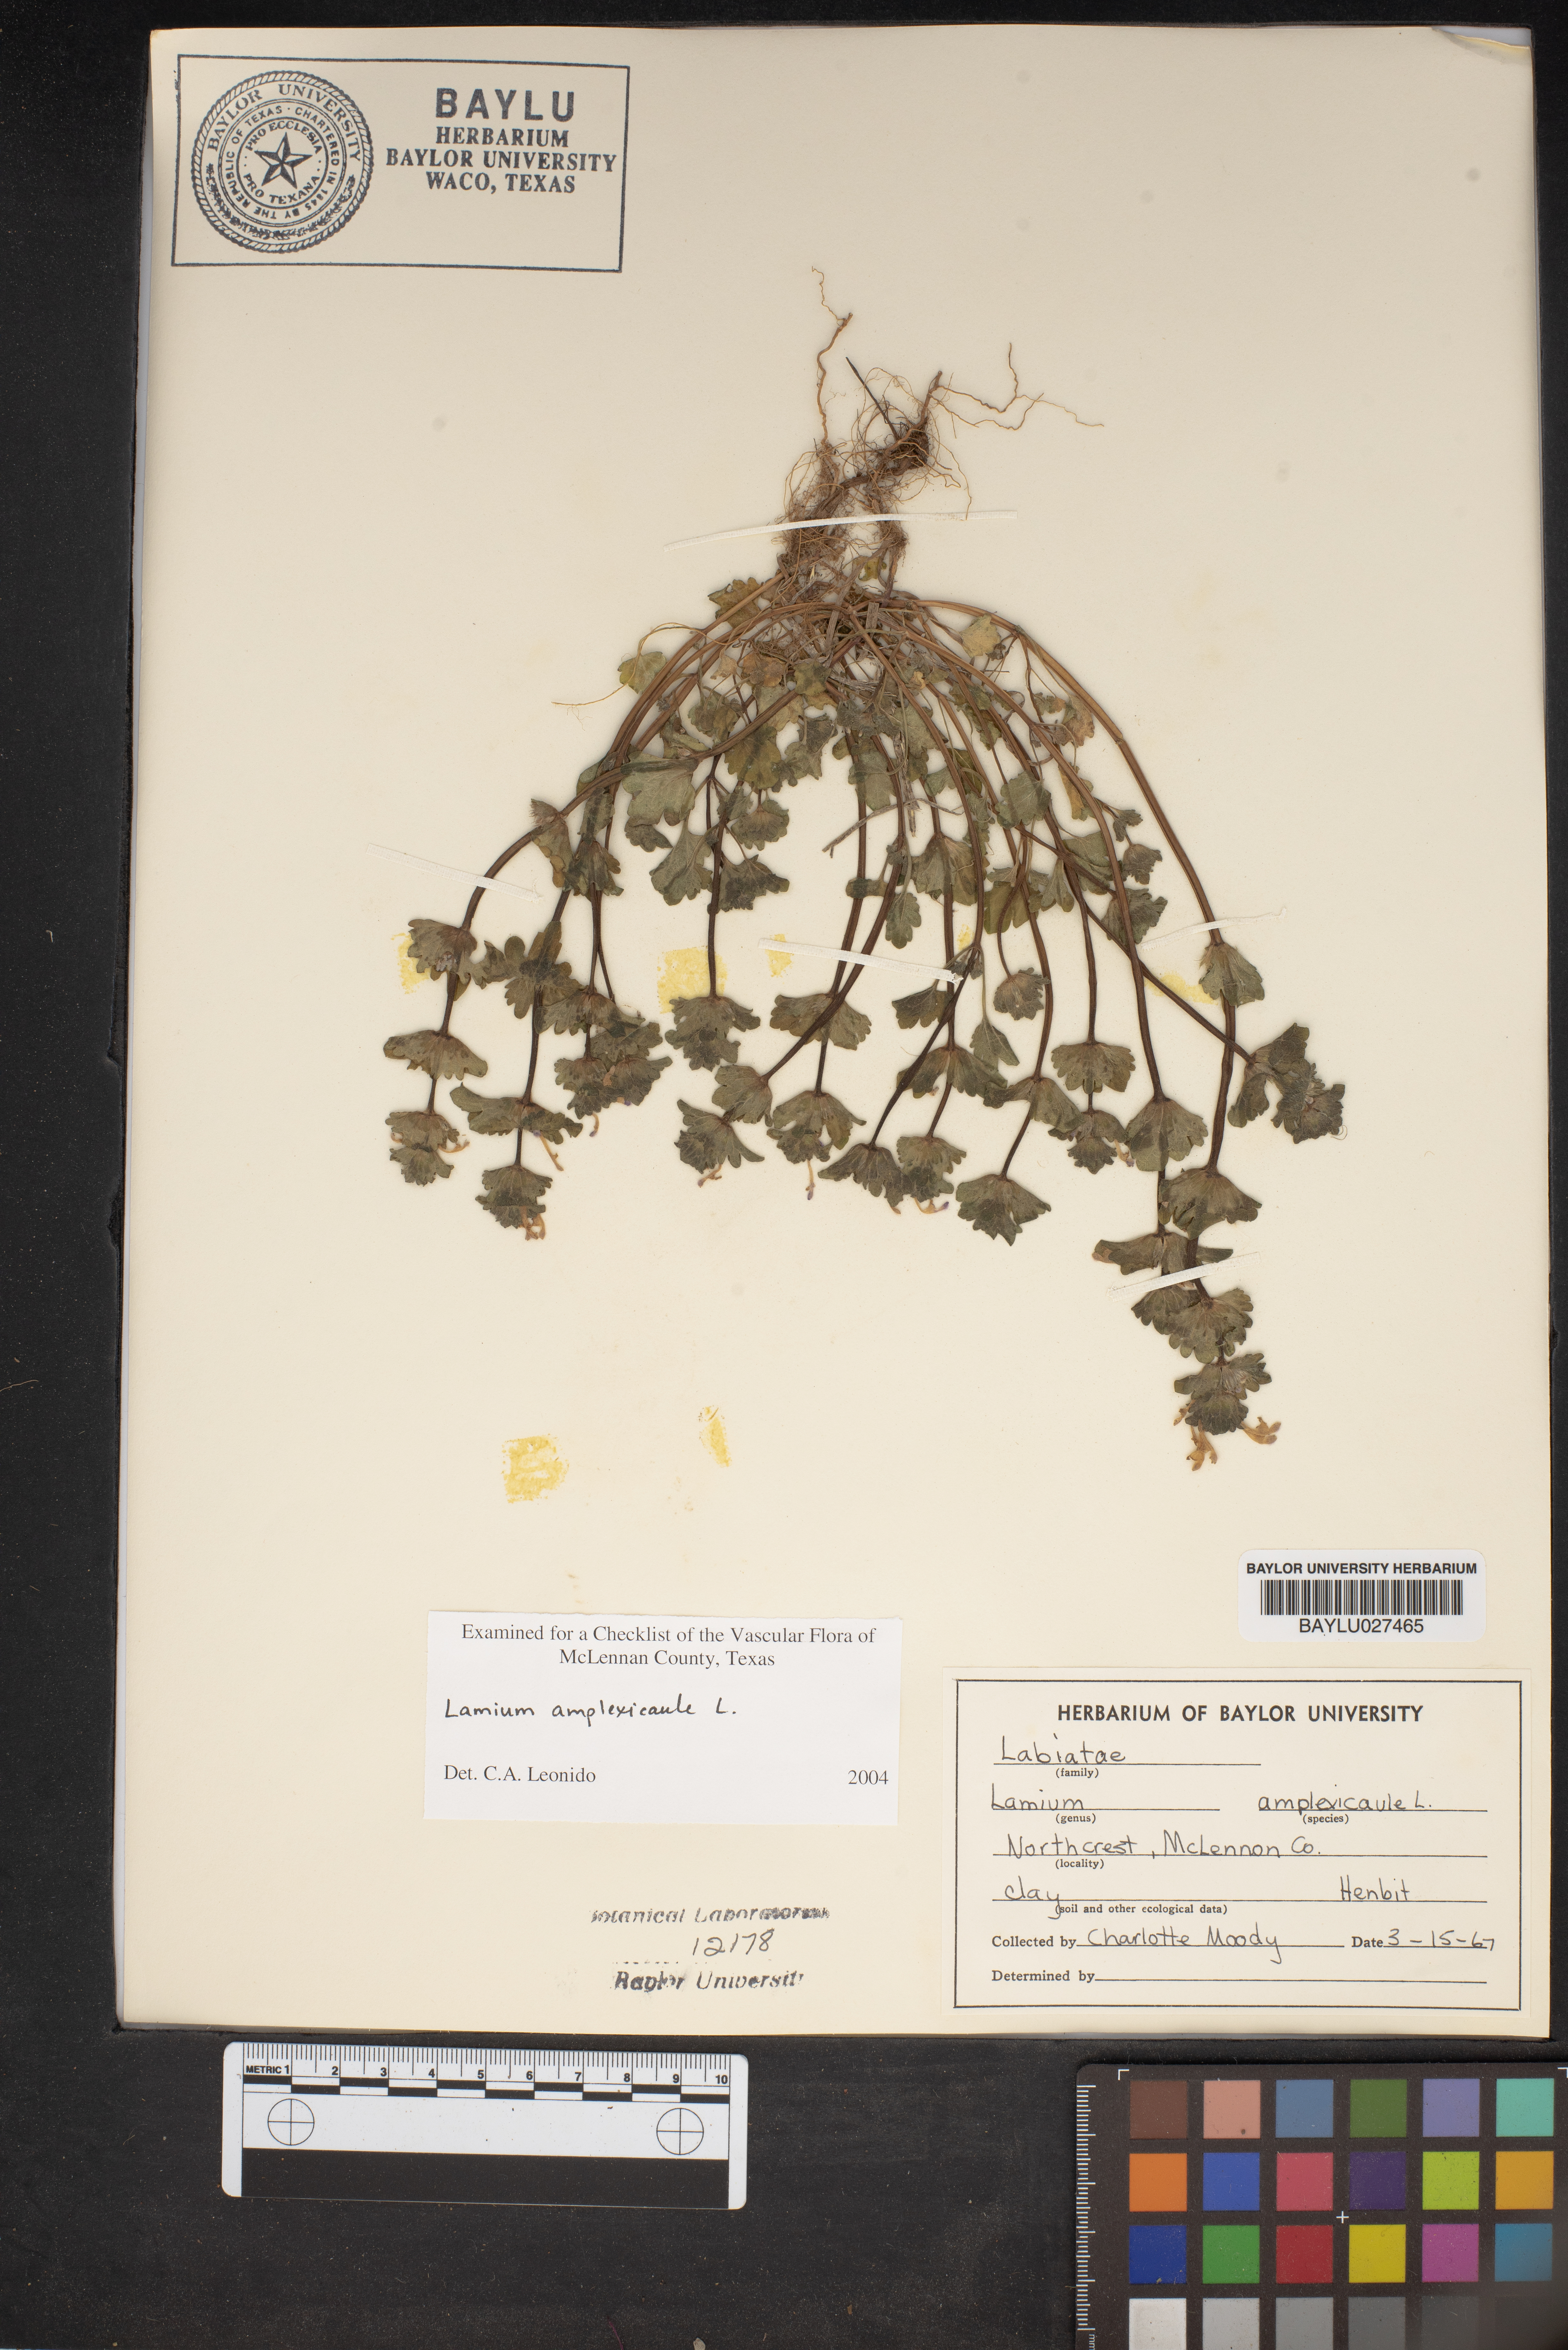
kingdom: Plantae
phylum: Tracheophyta
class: Magnoliopsida
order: Lamiales
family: Lamiaceae
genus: Lamium
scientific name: Lamium amplexicaule
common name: Henbit dead-nettle
